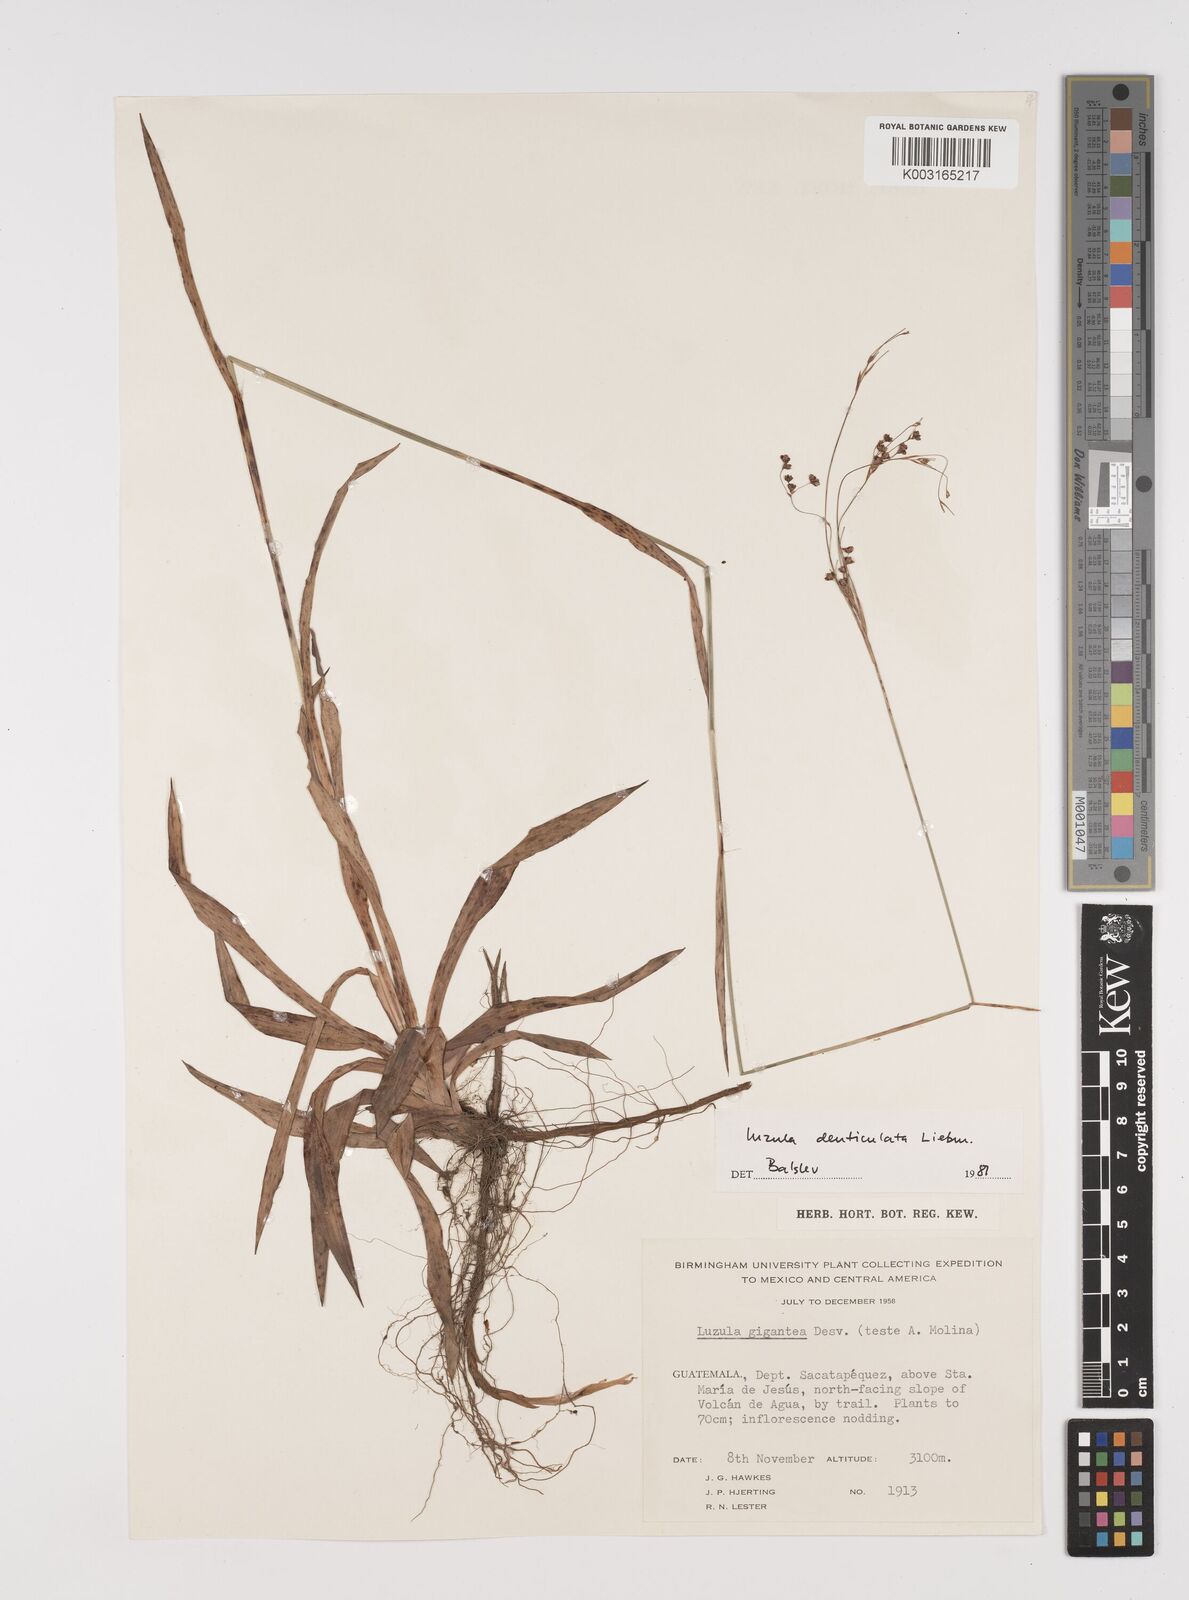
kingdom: Plantae
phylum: Tracheophyta
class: Liliopsida
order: Poales
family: Juncaceae
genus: Luzula
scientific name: Luzula gigantea
